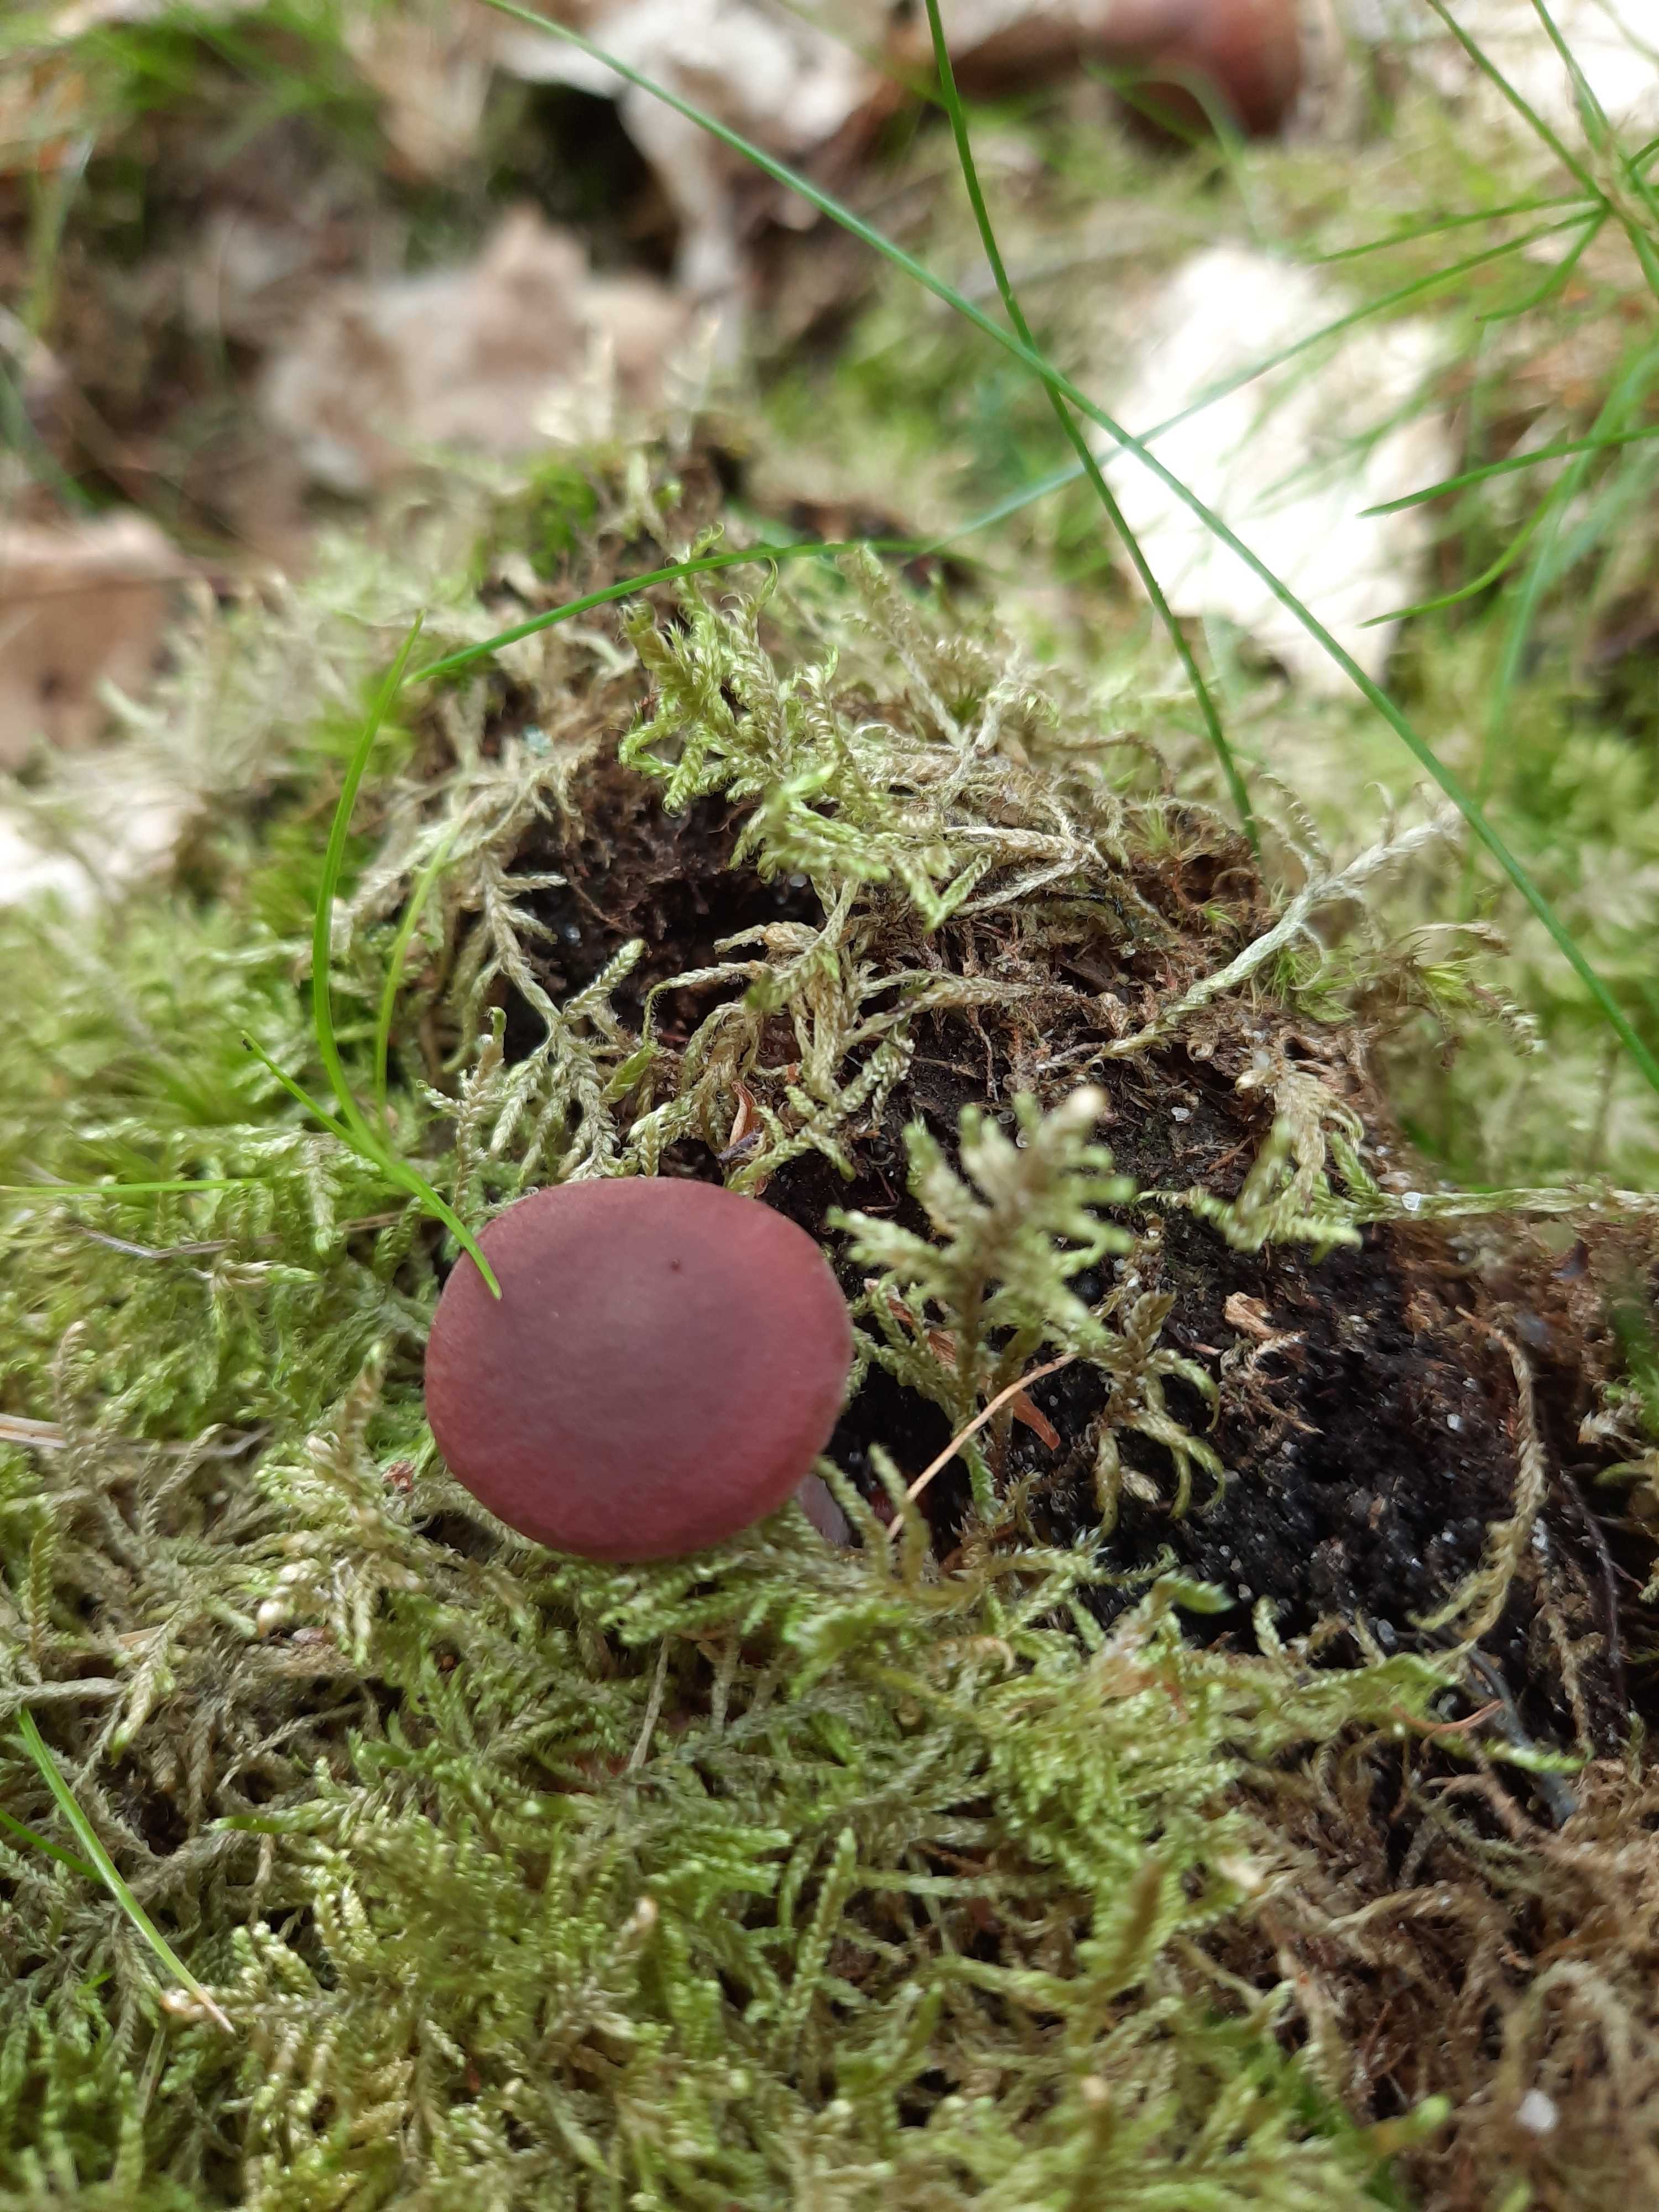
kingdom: Fungi
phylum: Basidiomycota
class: Agaricomycetes
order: Russulales
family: Russulaceae
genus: Lactarius
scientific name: Lactarius camphoratus
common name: kamfer-mælkehat
